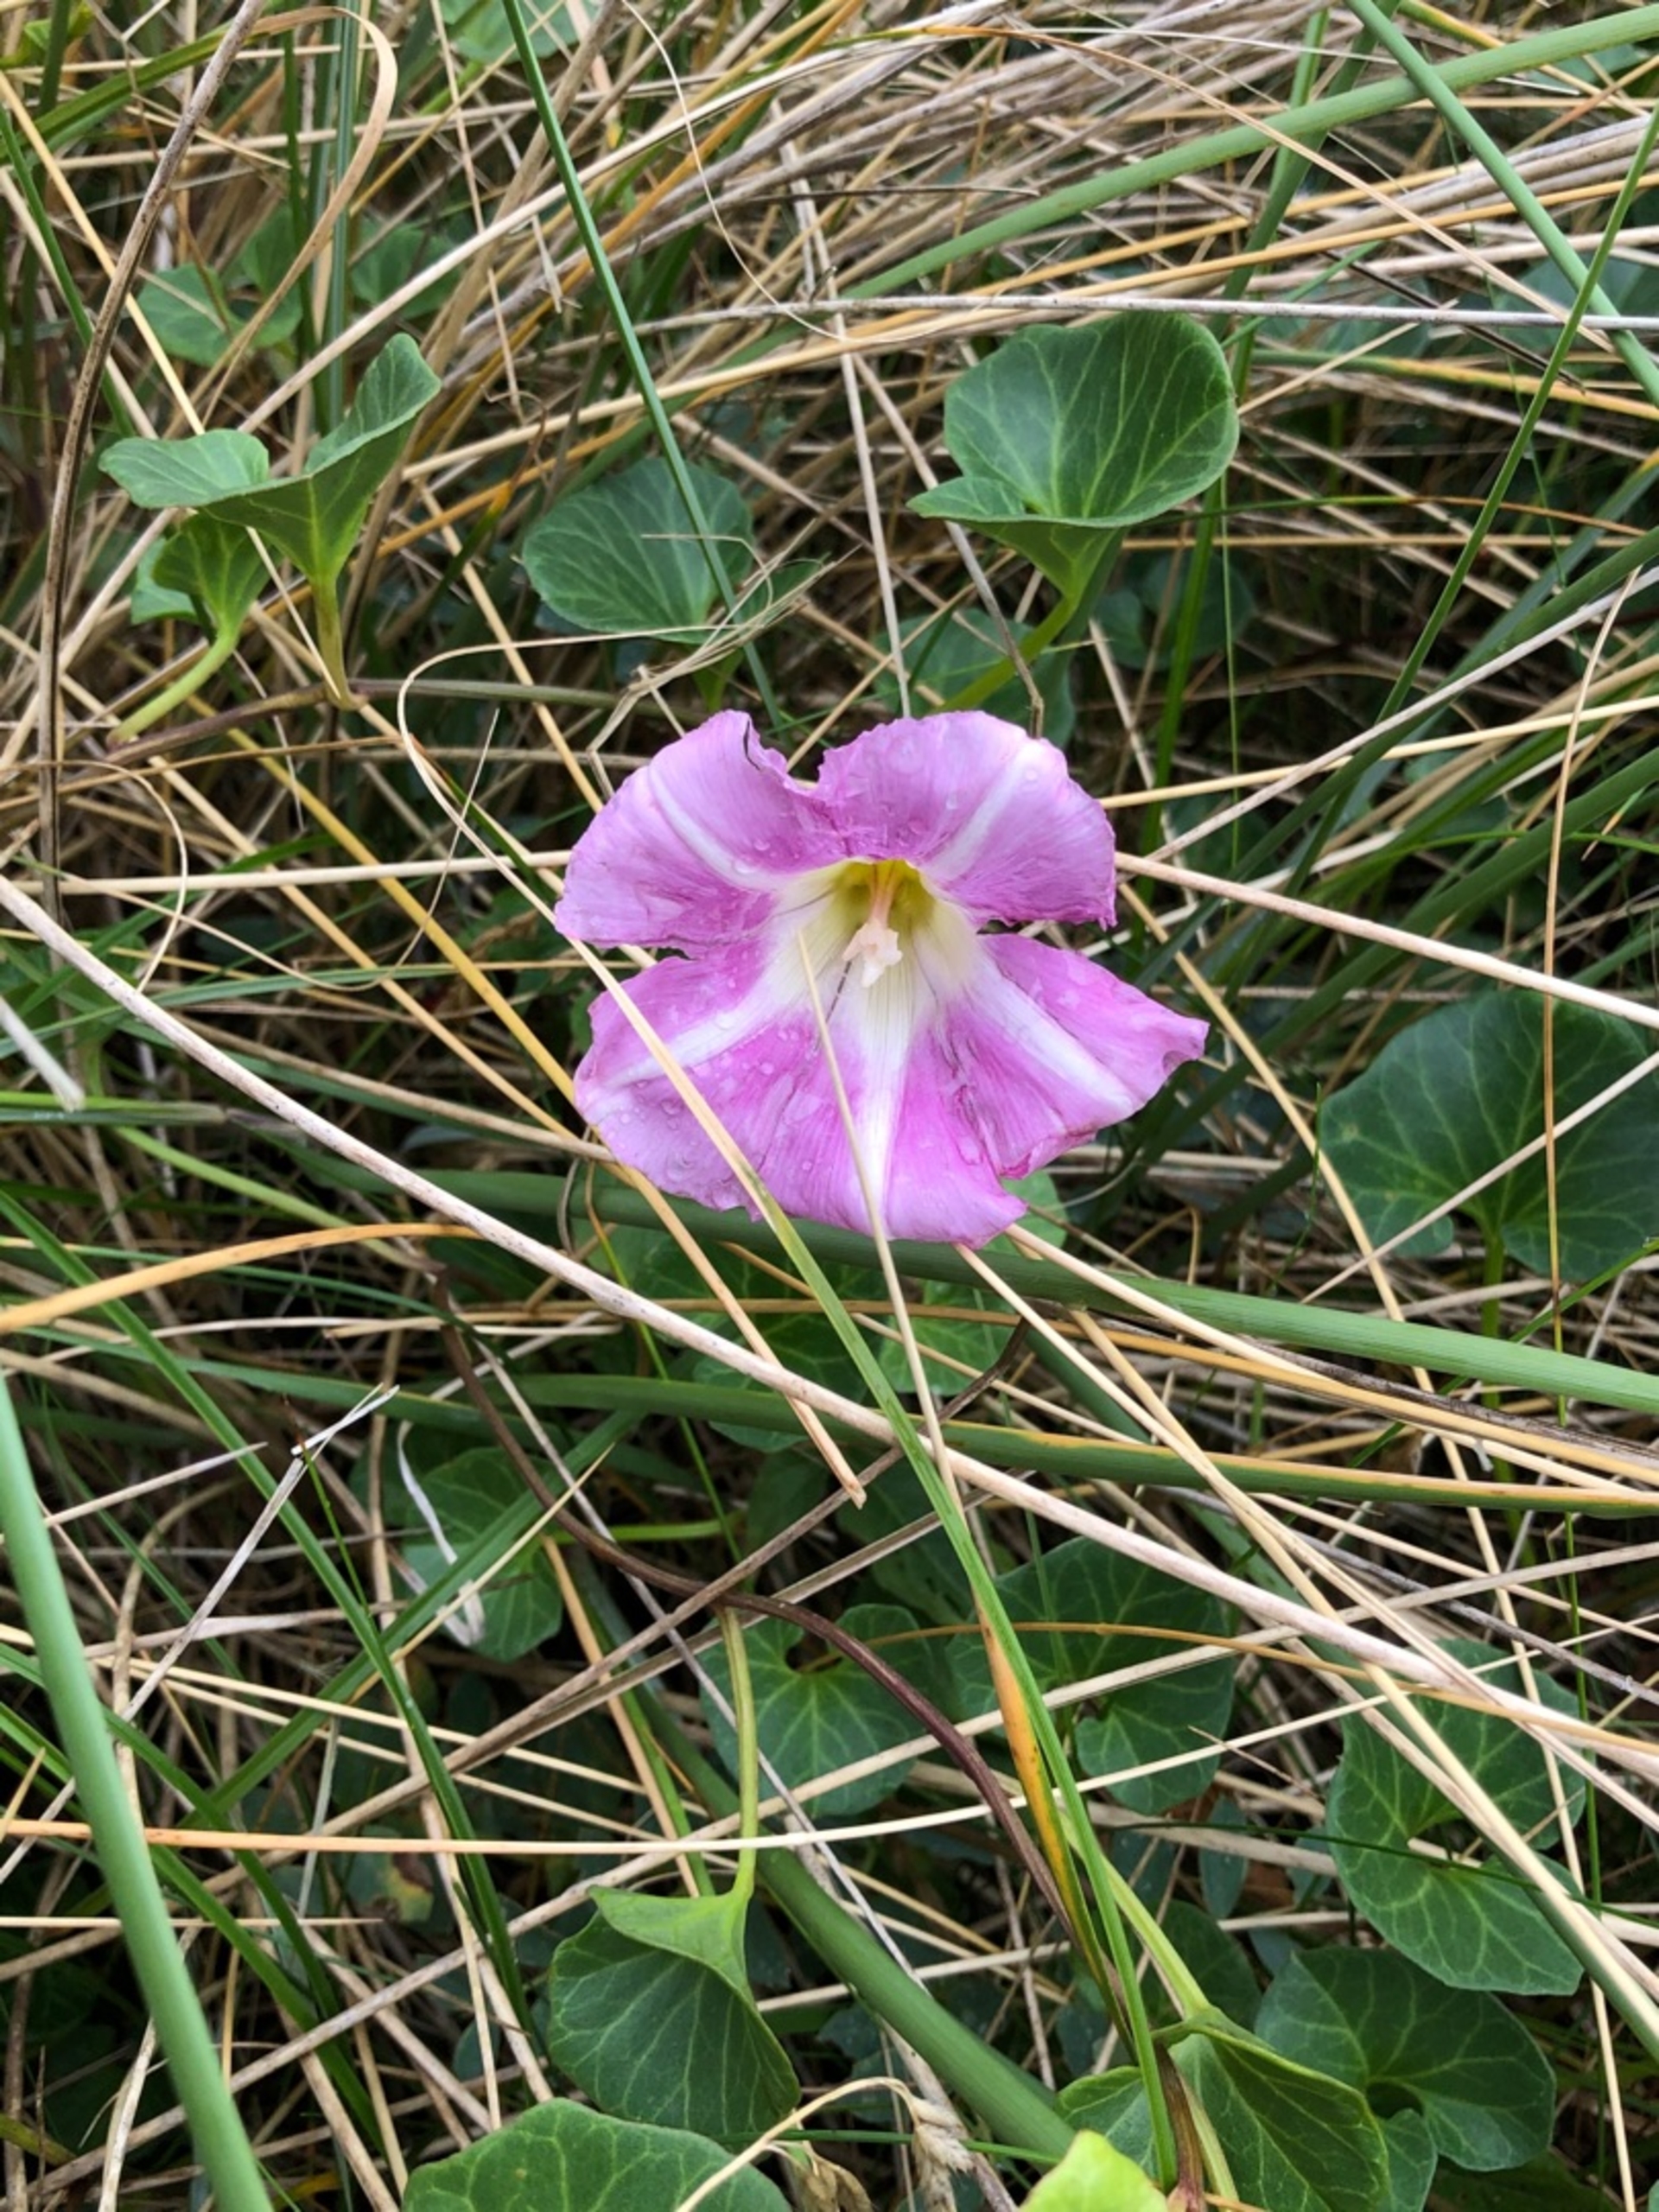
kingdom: Plantae
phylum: Tracheophyta
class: Magnoliopsida
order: Solanales
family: Convolvulaceae
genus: Calystegia
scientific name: Calystegia soldanella
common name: Strand-snerle
